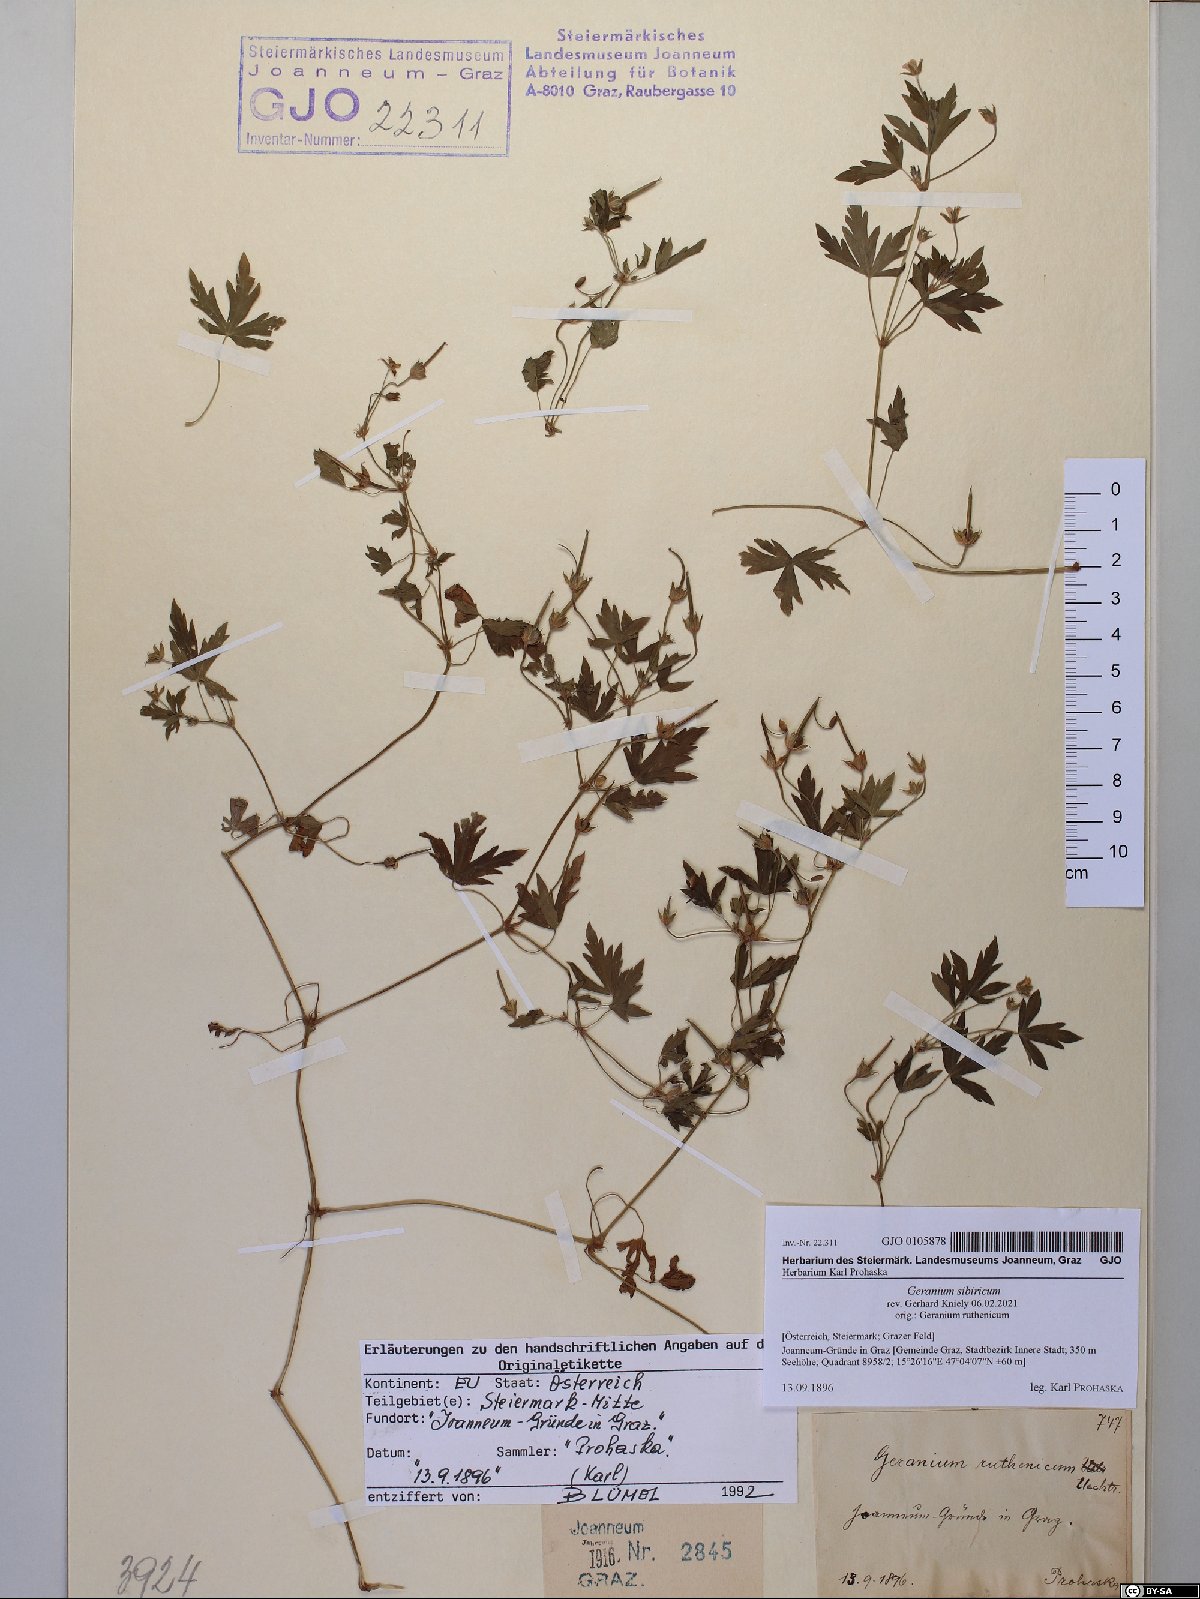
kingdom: Plantae
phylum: Tracheophyta
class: Magnoliopsida
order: Geraniales
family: Geraniaceae
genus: Geranium
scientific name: Geranium sibiricum
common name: Siberian crane's-bill
